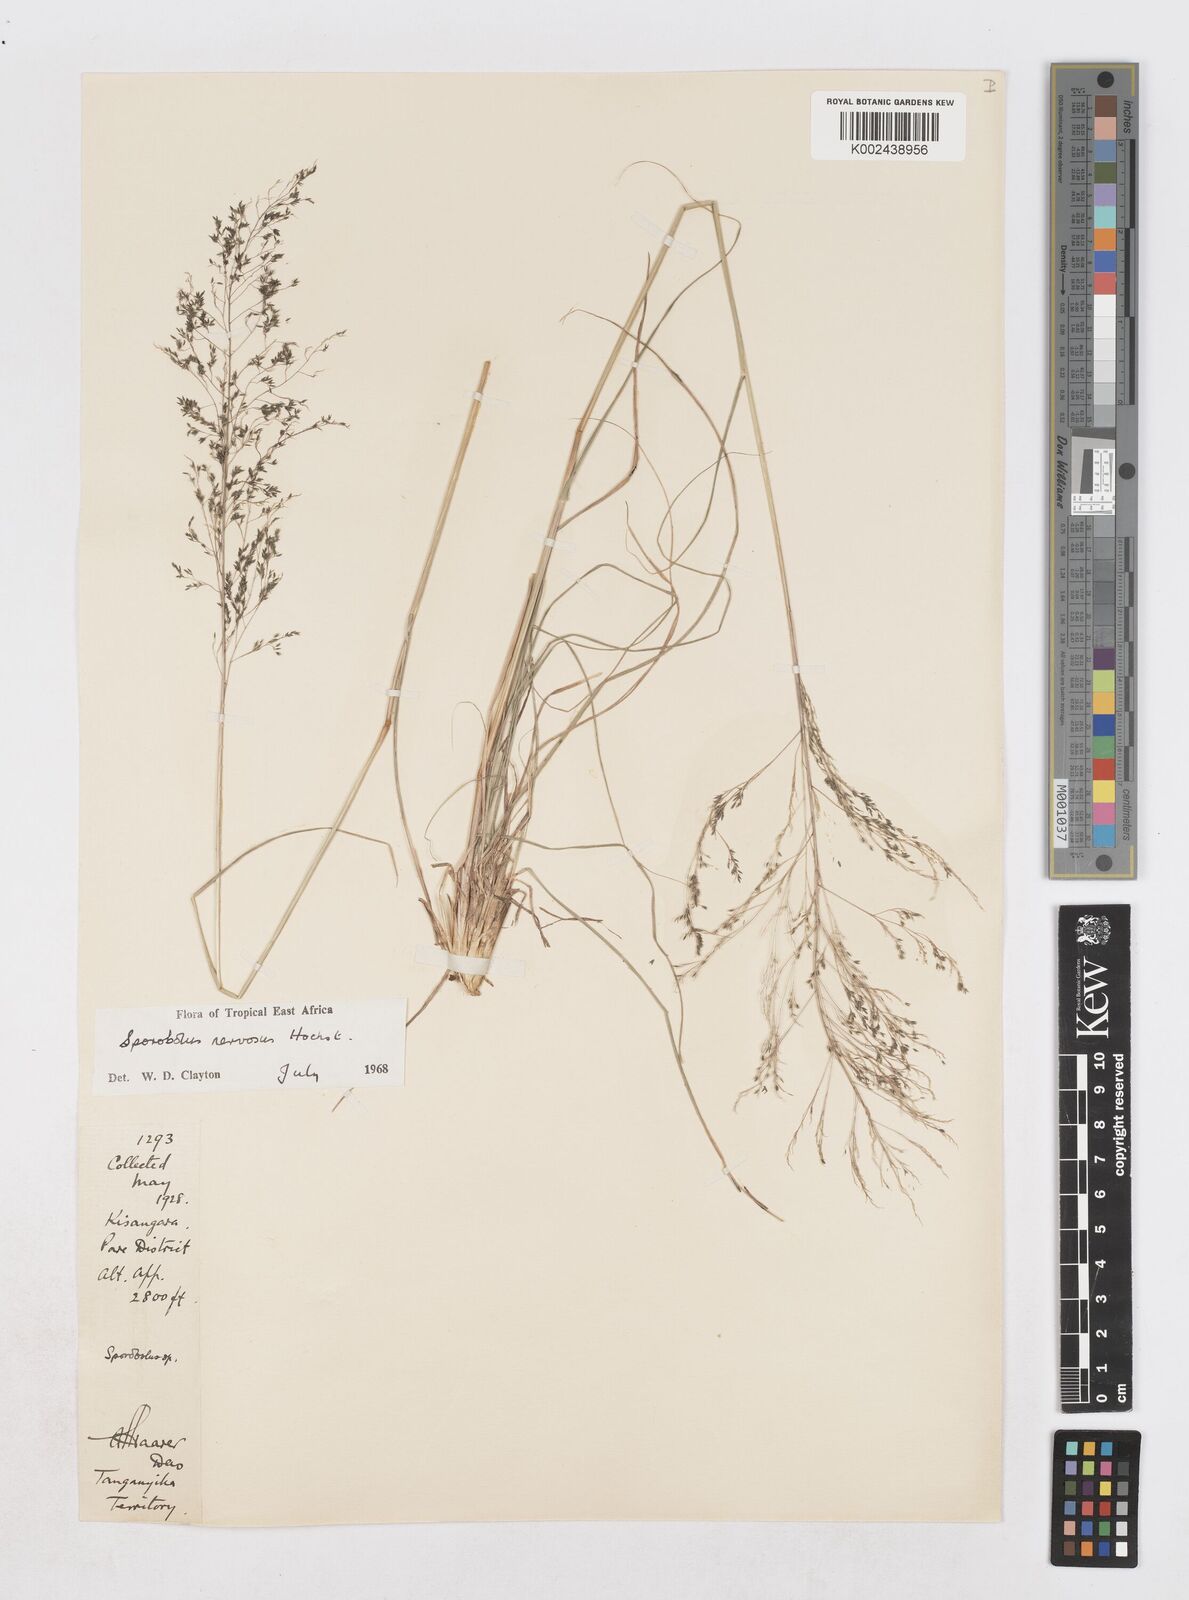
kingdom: Plantae
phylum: Tracheophyta
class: Liliopsida
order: Poales
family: Poaceae
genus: Sporobolus
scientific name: Sporobolus nervosus
